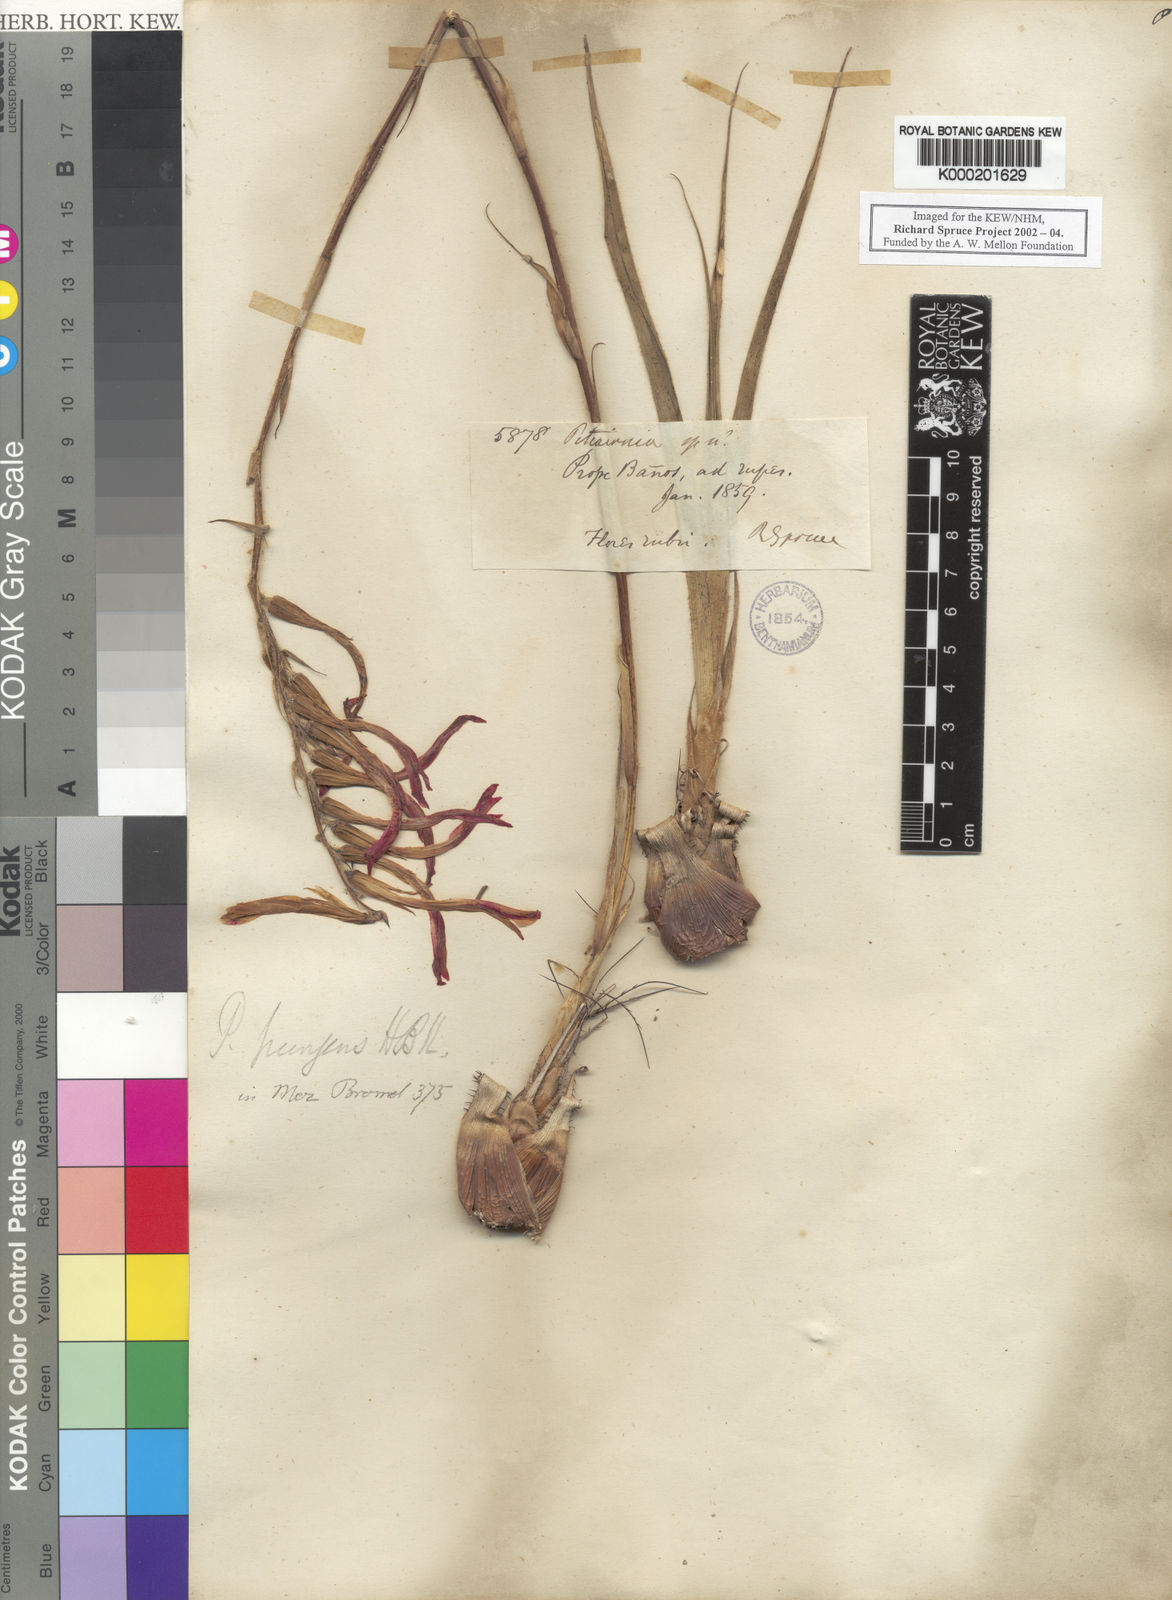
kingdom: Plantae
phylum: Tracheophyta
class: Liliopsida
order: Poales
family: Bromeliaceae
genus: Pitcairnia
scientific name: Pitcairnia pungens
